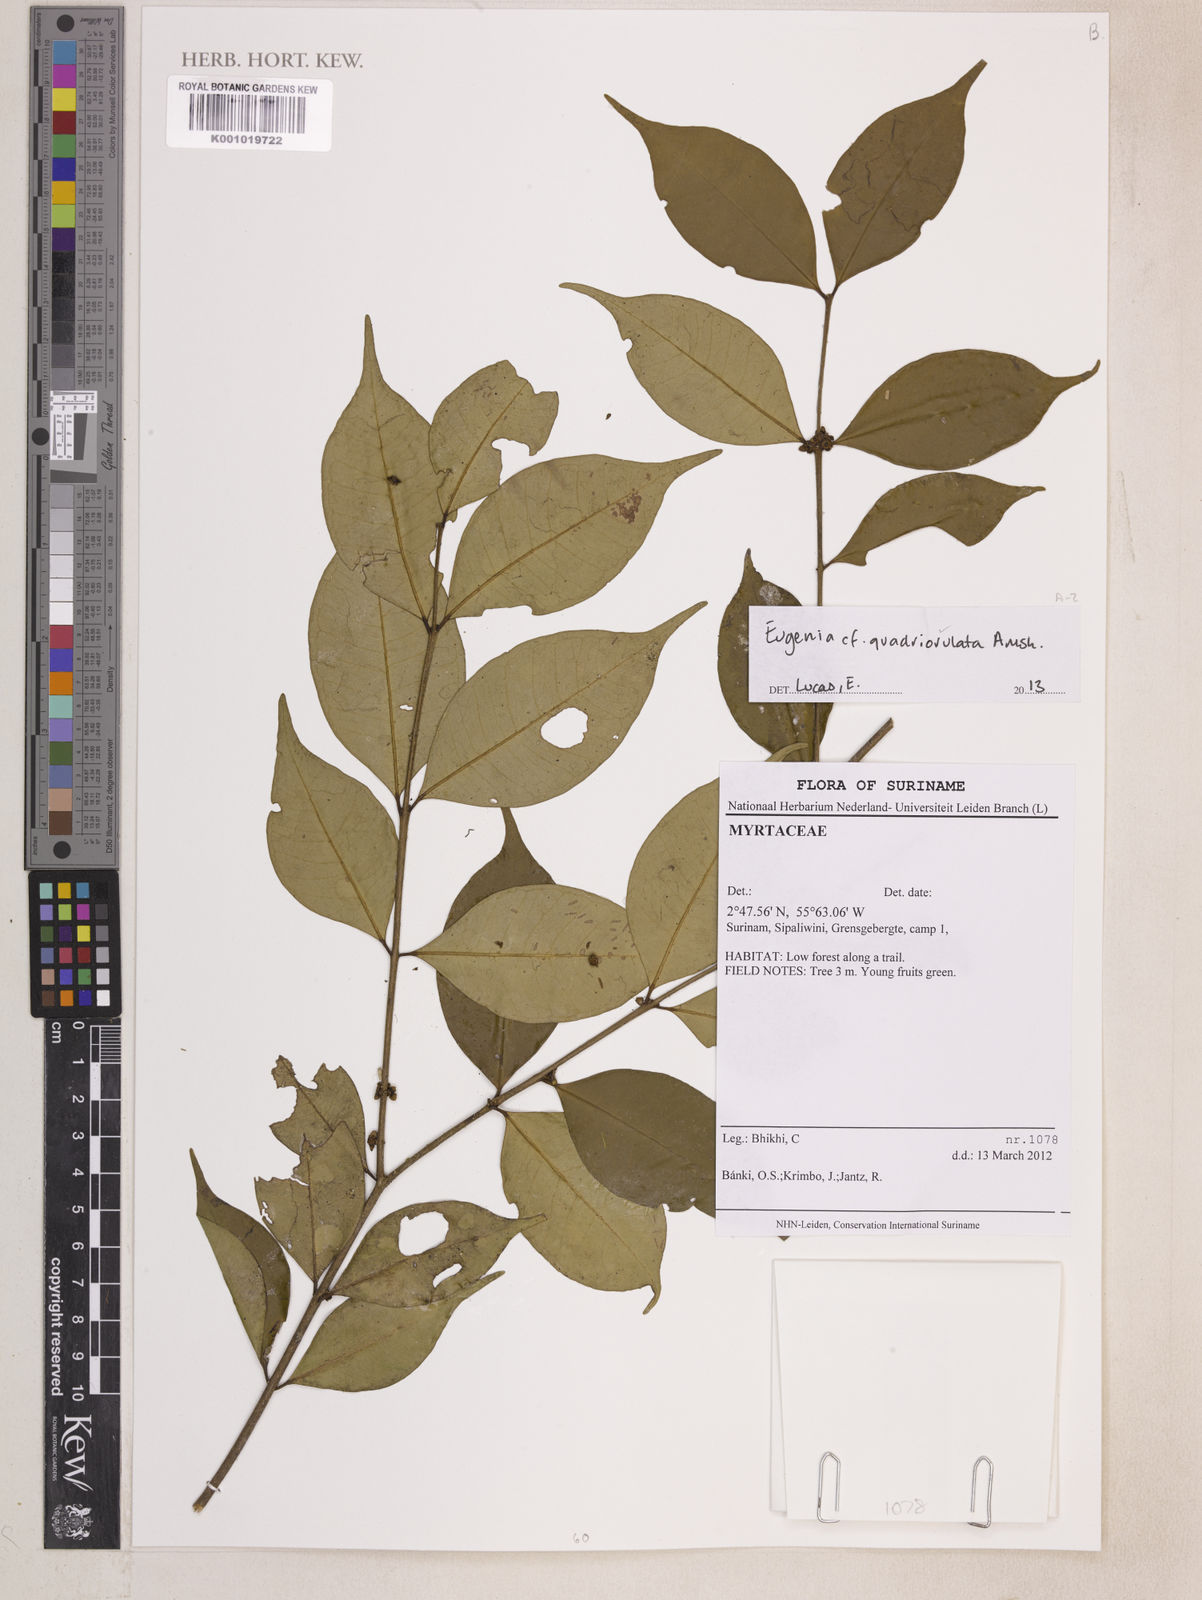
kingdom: Plantae
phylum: Tracheophyta
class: Magnoliopsida
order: Myrtales
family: Myrtaceae
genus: Eugenia
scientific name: Eugenia quadriovulata
